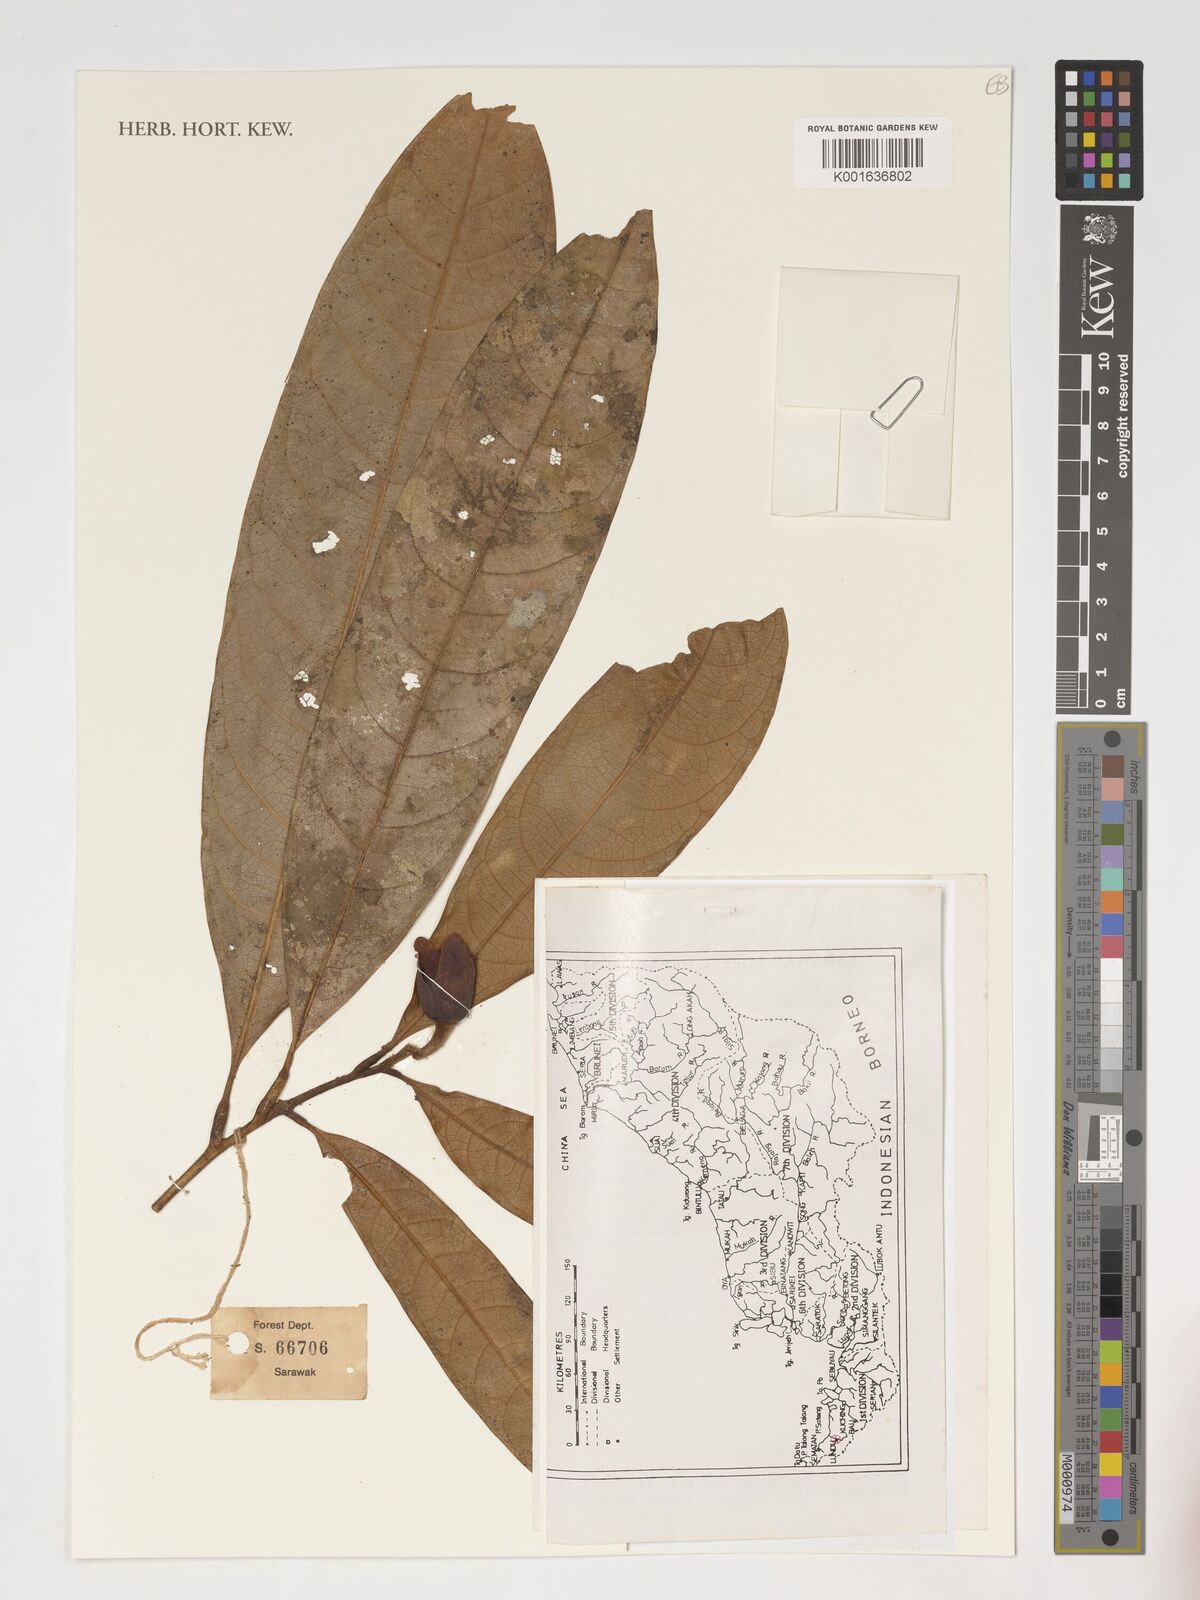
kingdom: Plantae
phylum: Tracheophyta
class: Magnoliopsida
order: Magnoliales
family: Magnoliaceae
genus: Magnolia
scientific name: Magnolia
